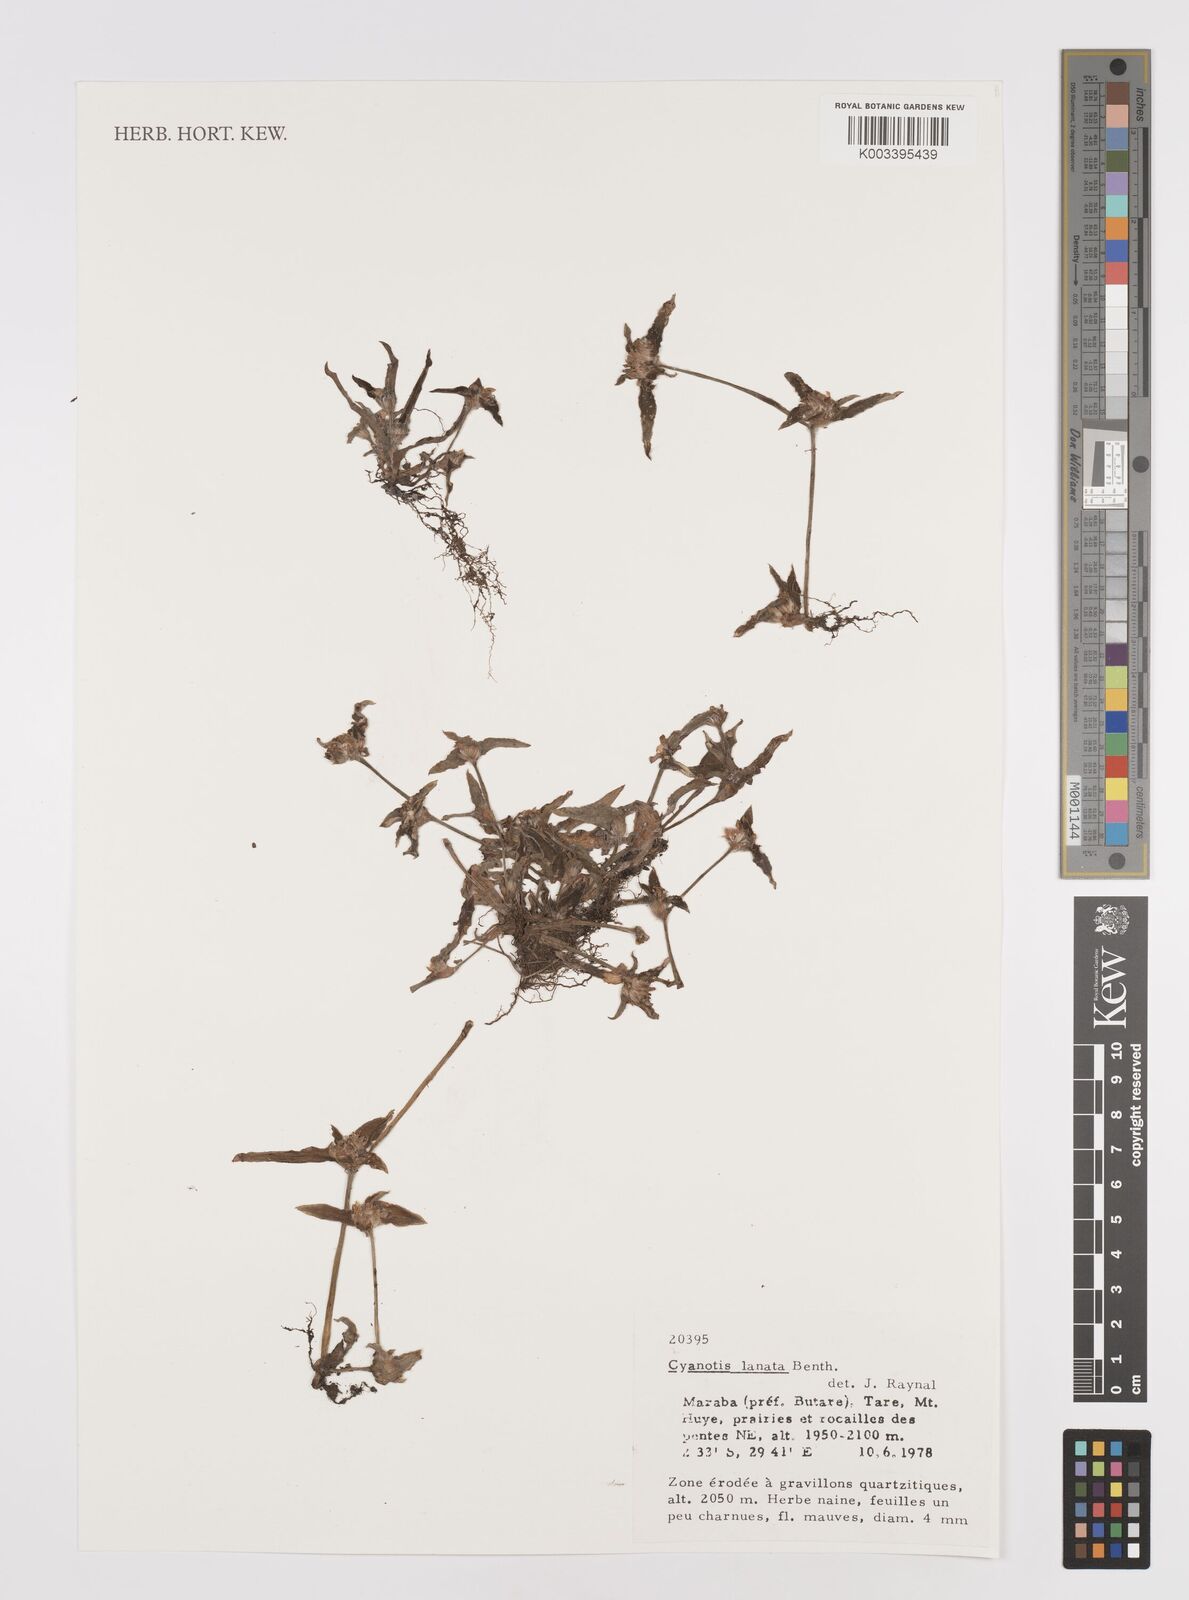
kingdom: Plantae
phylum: Tracheophyta
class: Liliopsida
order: Commelinales
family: Commelinaceae
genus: Cyanotis
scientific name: Cyanotis lanata
